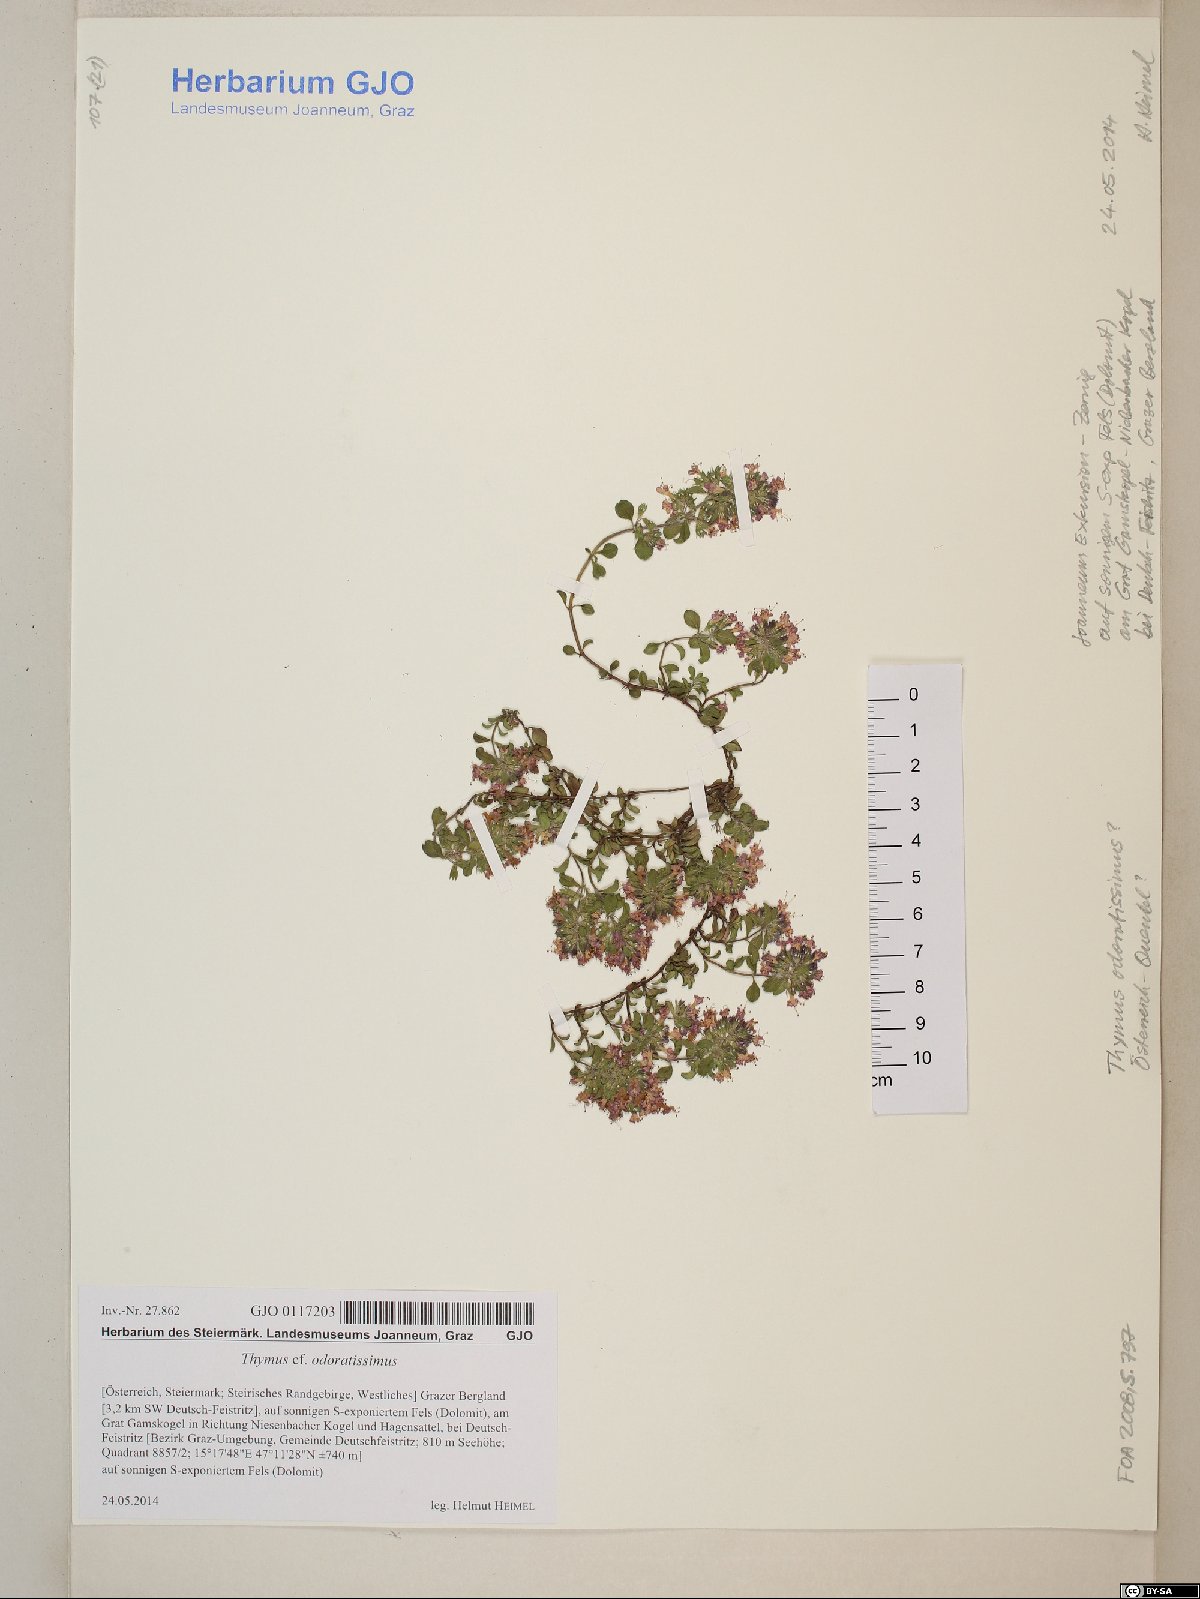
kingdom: Plantae
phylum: Tracheophyta
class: Magnoliopsida
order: Lamiales
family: Lamiaceae
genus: Thymus
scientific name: Thymus odoratissimus
